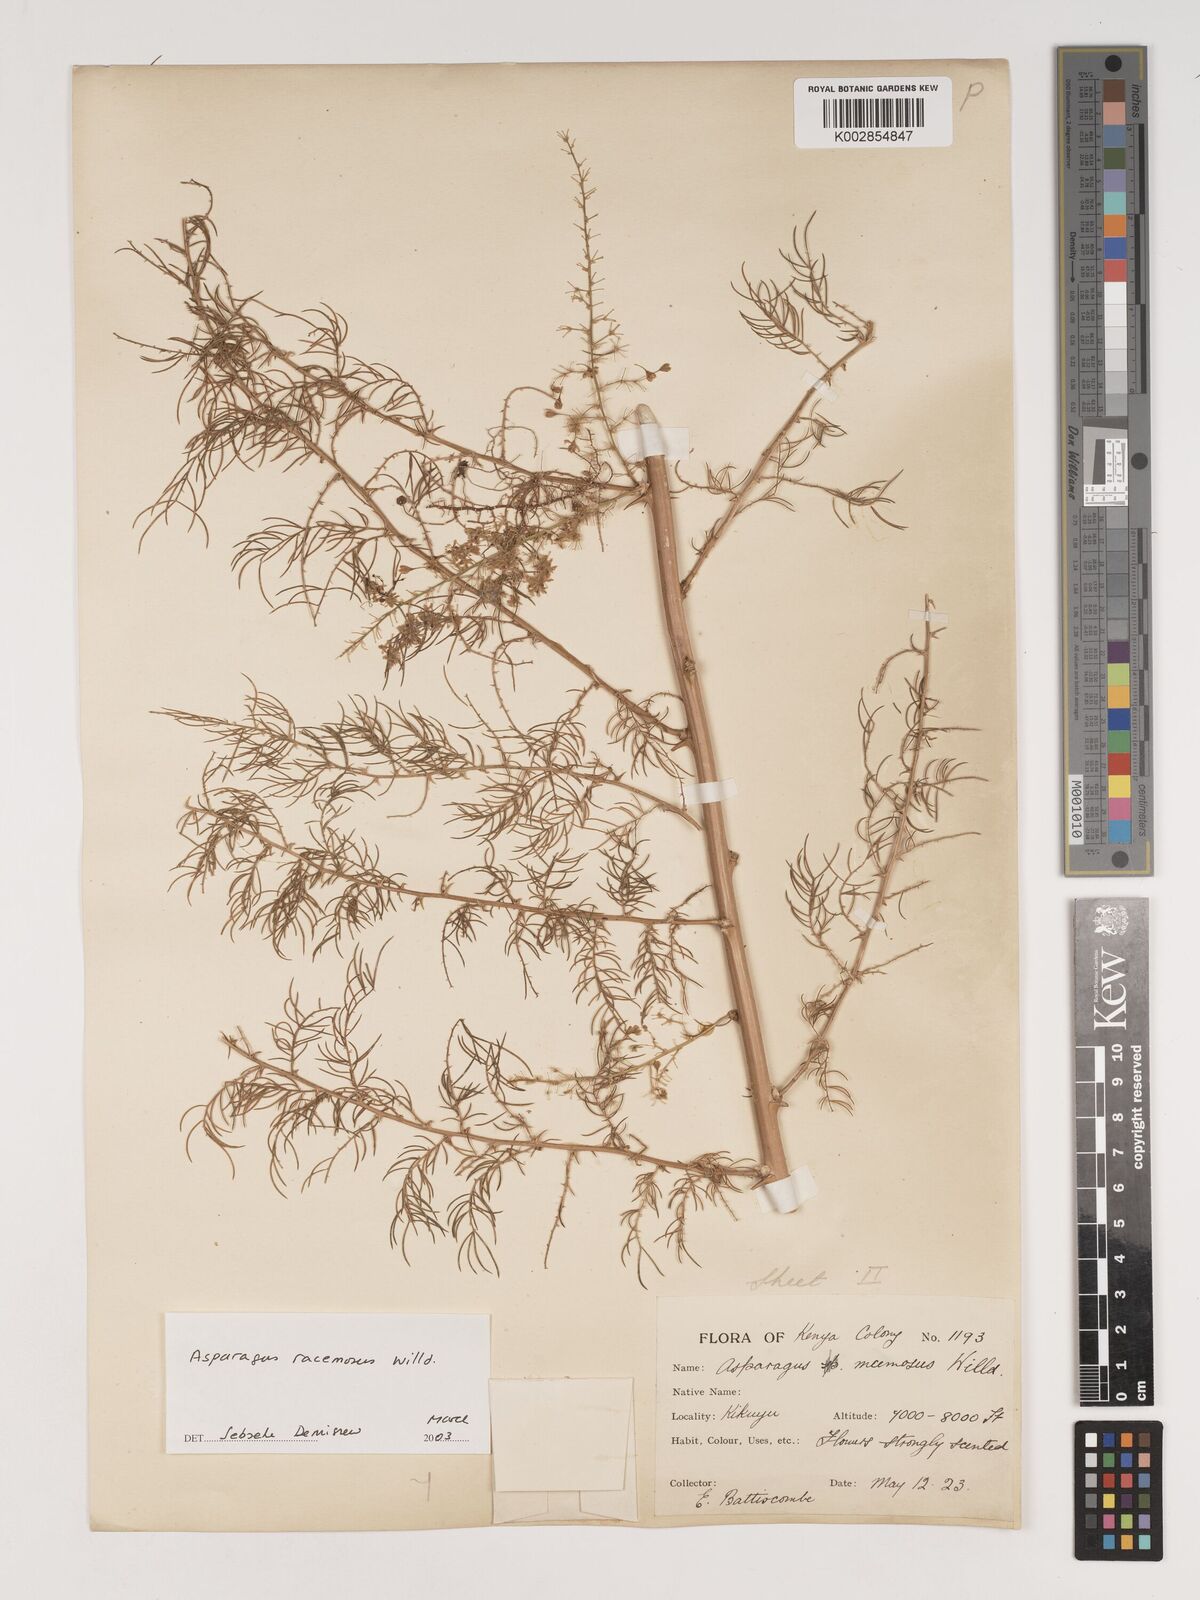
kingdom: Plantae
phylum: Tracheophyta
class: Liliopsida
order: Asparagales
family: Asparagaceae
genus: Asparagus
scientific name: Asparagus racemosus
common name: Asparagus-fern
